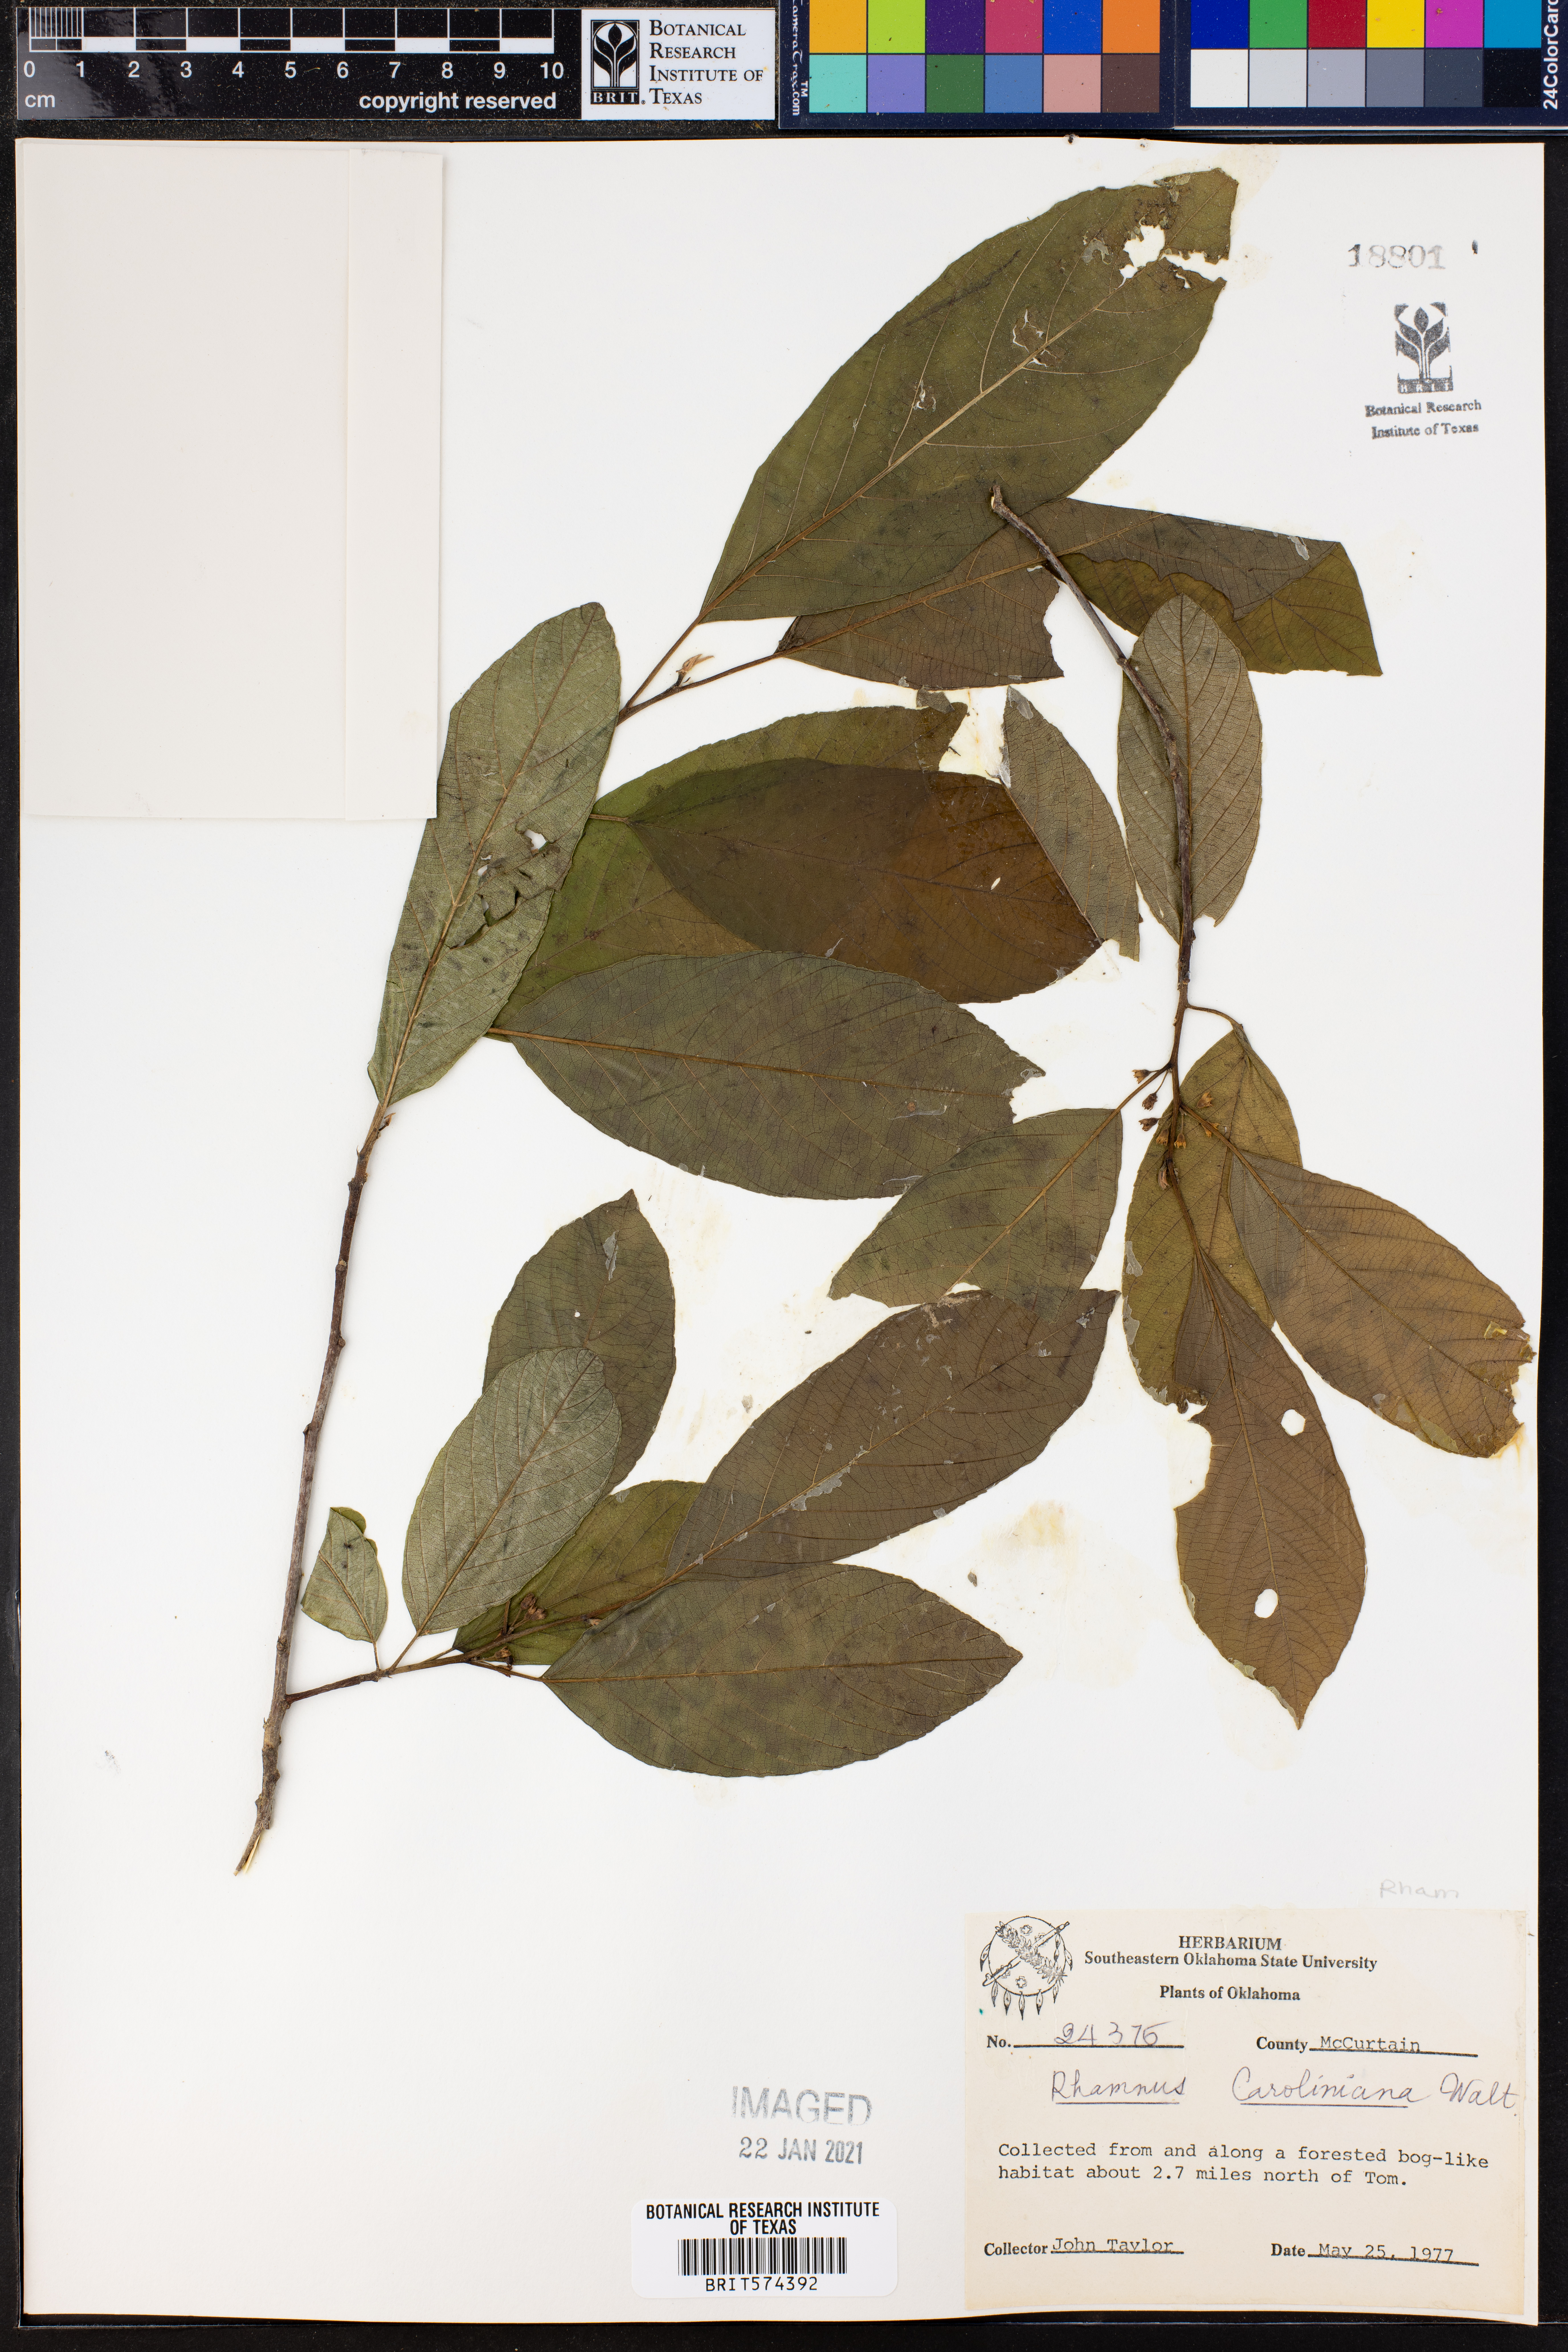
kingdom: Plantae
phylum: Tracheophyta
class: Magnoliopsida
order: Rosales
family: Rhamnaceae
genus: Frangula
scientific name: Frangula caroliniana
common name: Carolina buckthorn
